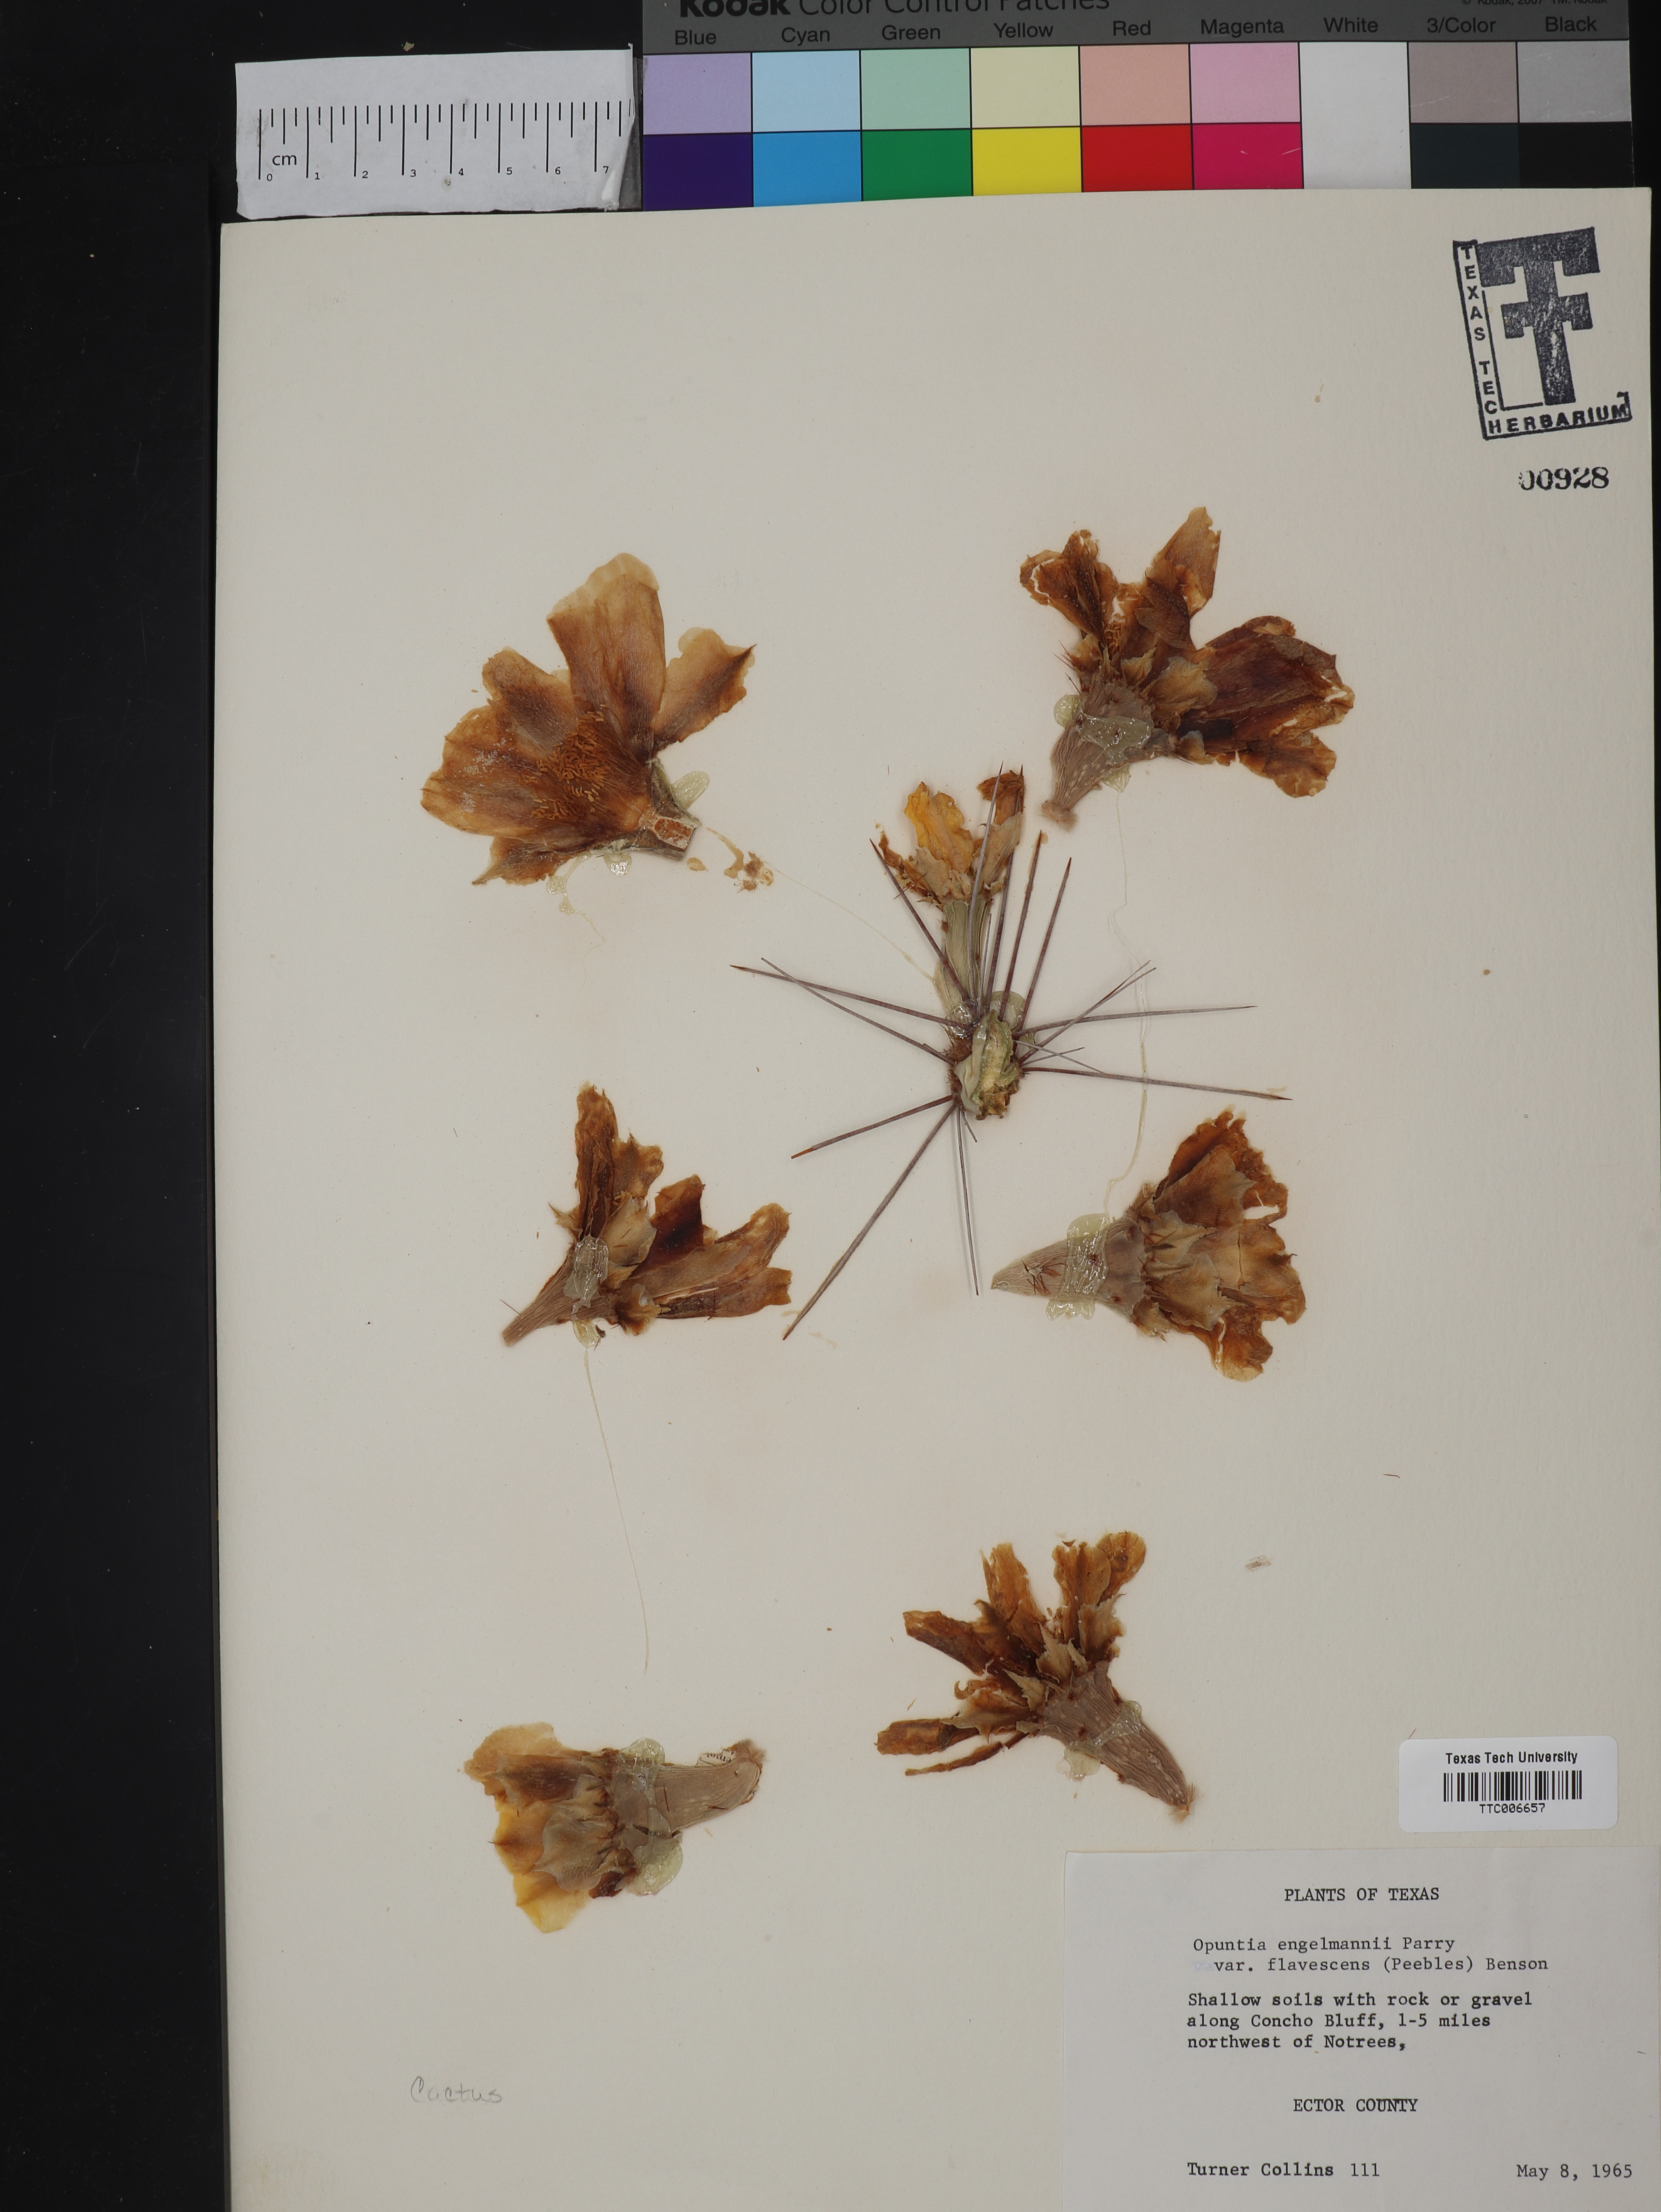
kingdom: Plantae
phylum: Tracheophyta
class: Magnoliopsida
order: Caryophyllales
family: Cactaceae
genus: Opuntia
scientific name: Opuntia engelmannii
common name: Cactus-apple
